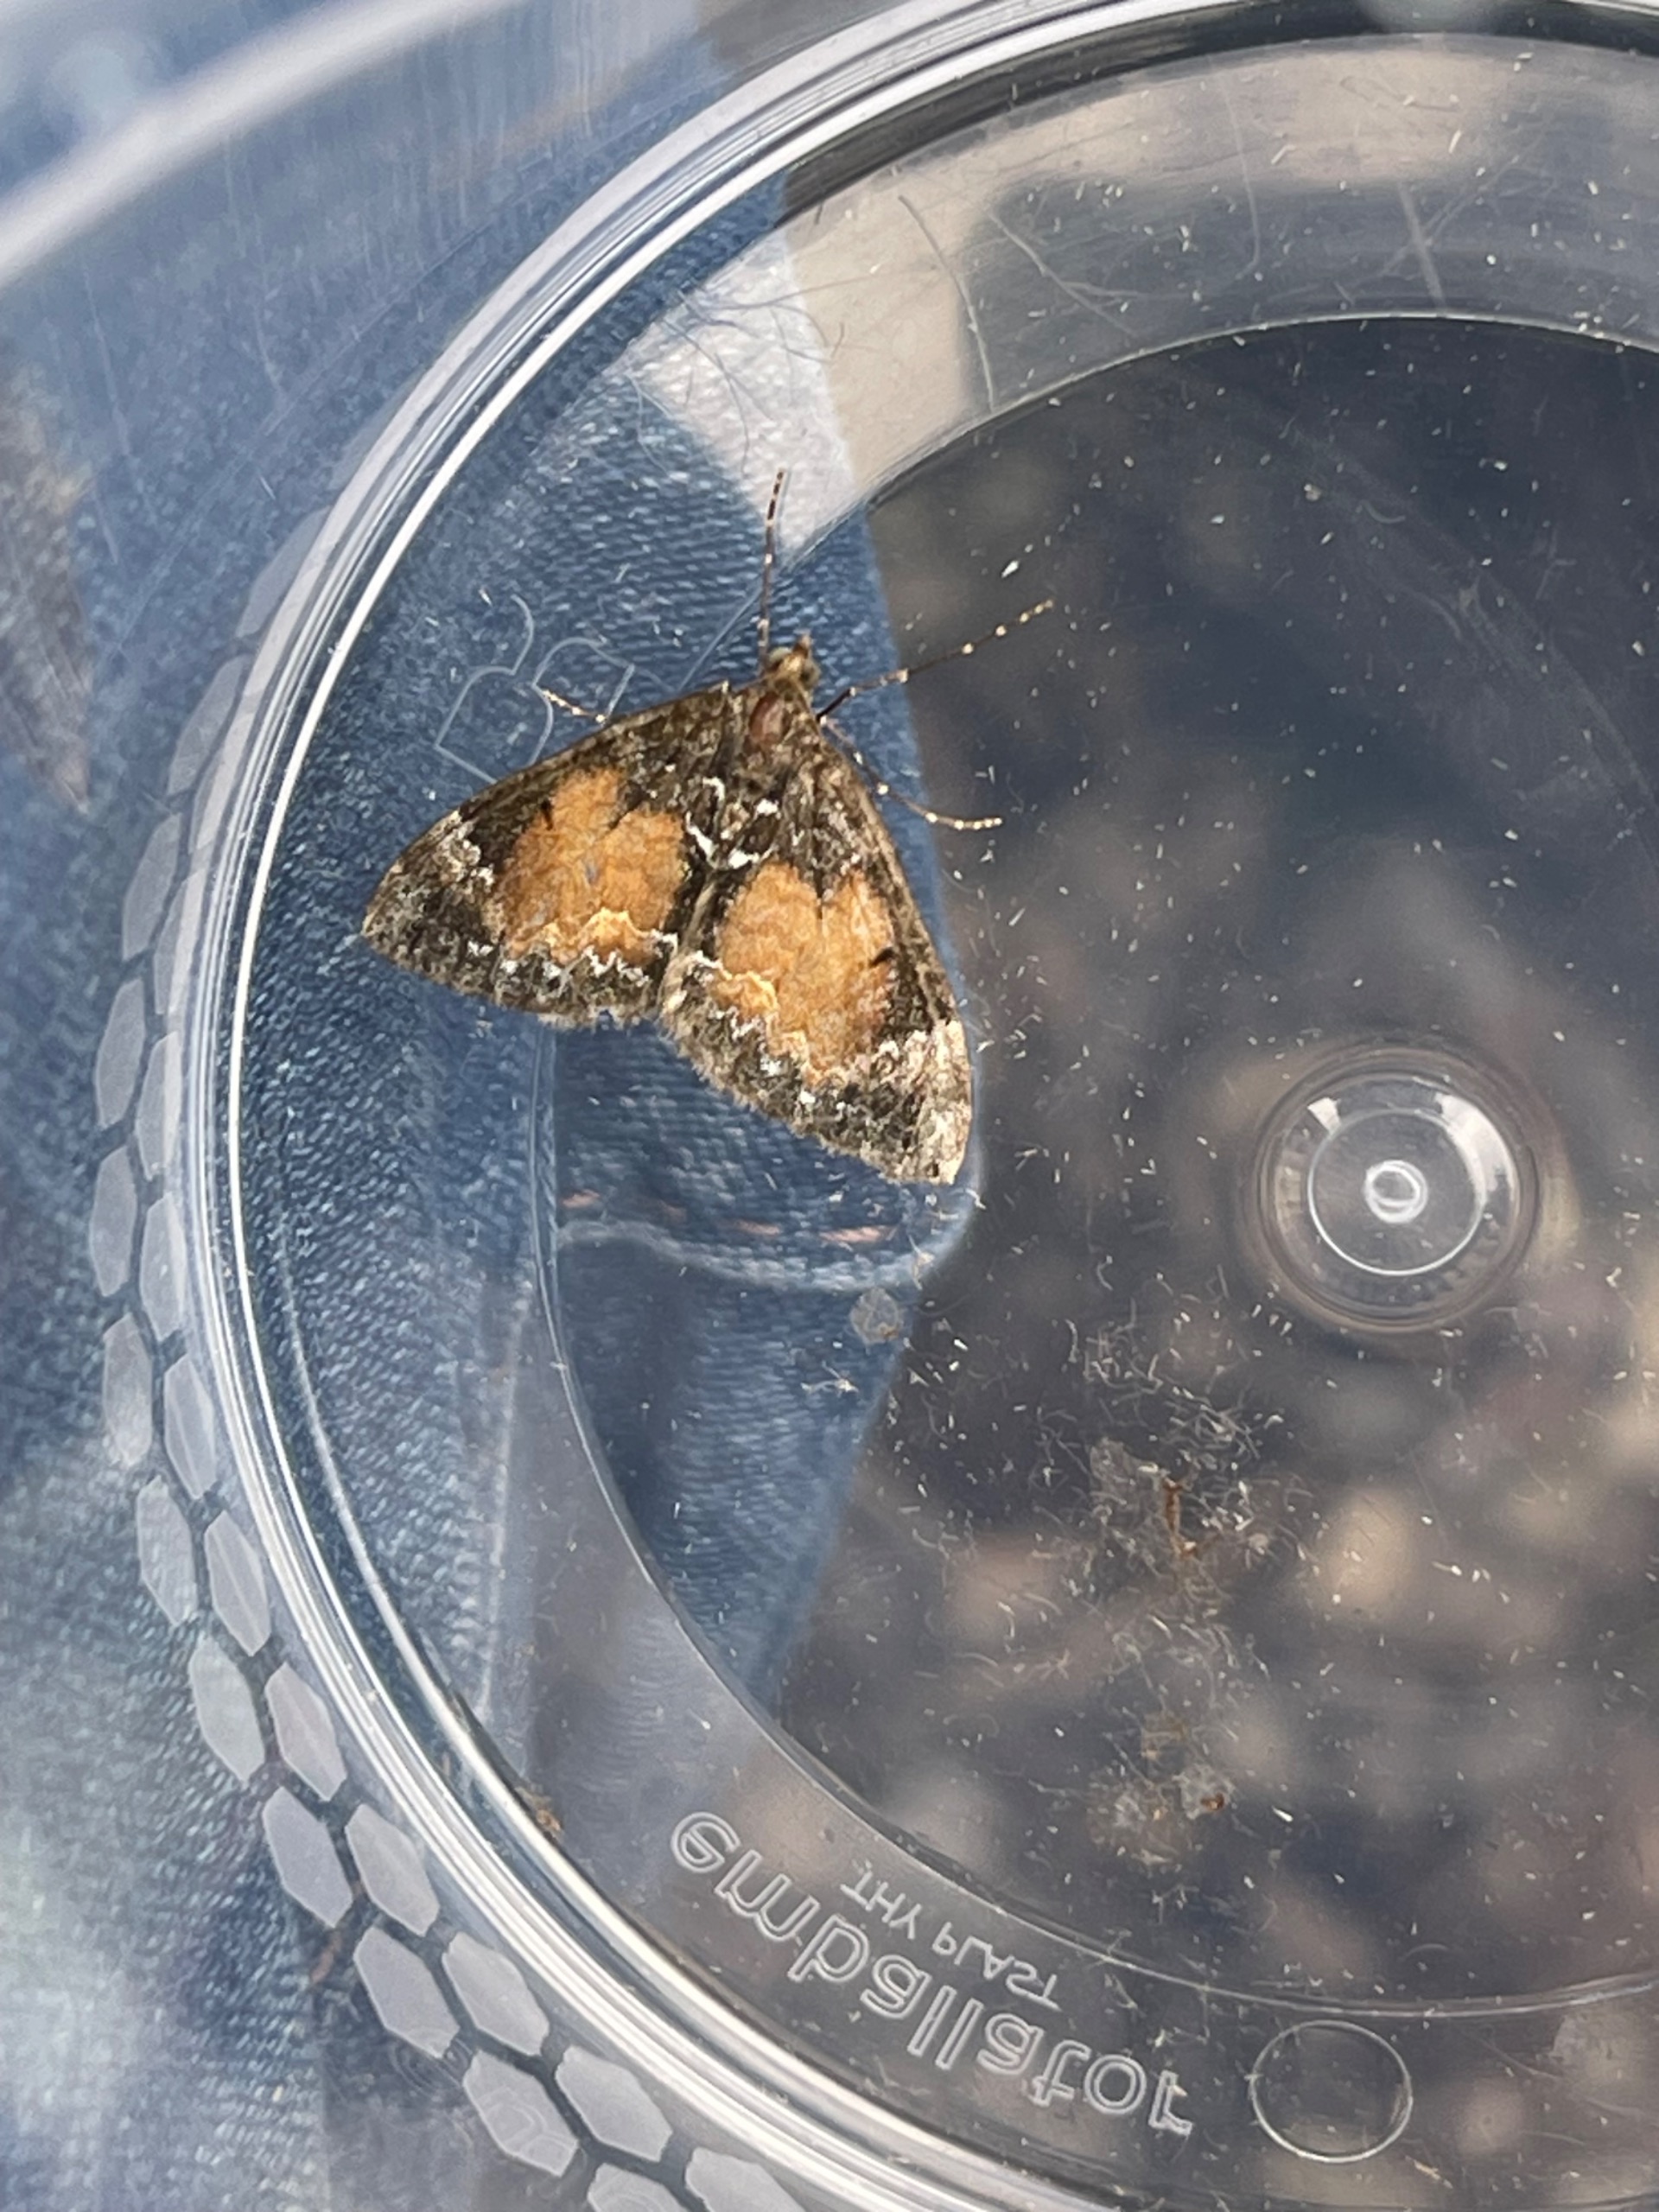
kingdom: Animalia
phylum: Arthropoda
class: Insecta
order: Lepidoptera
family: Geometridae
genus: Dysstroma
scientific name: Dysstroma truncata
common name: Jordbær-bladmåler
